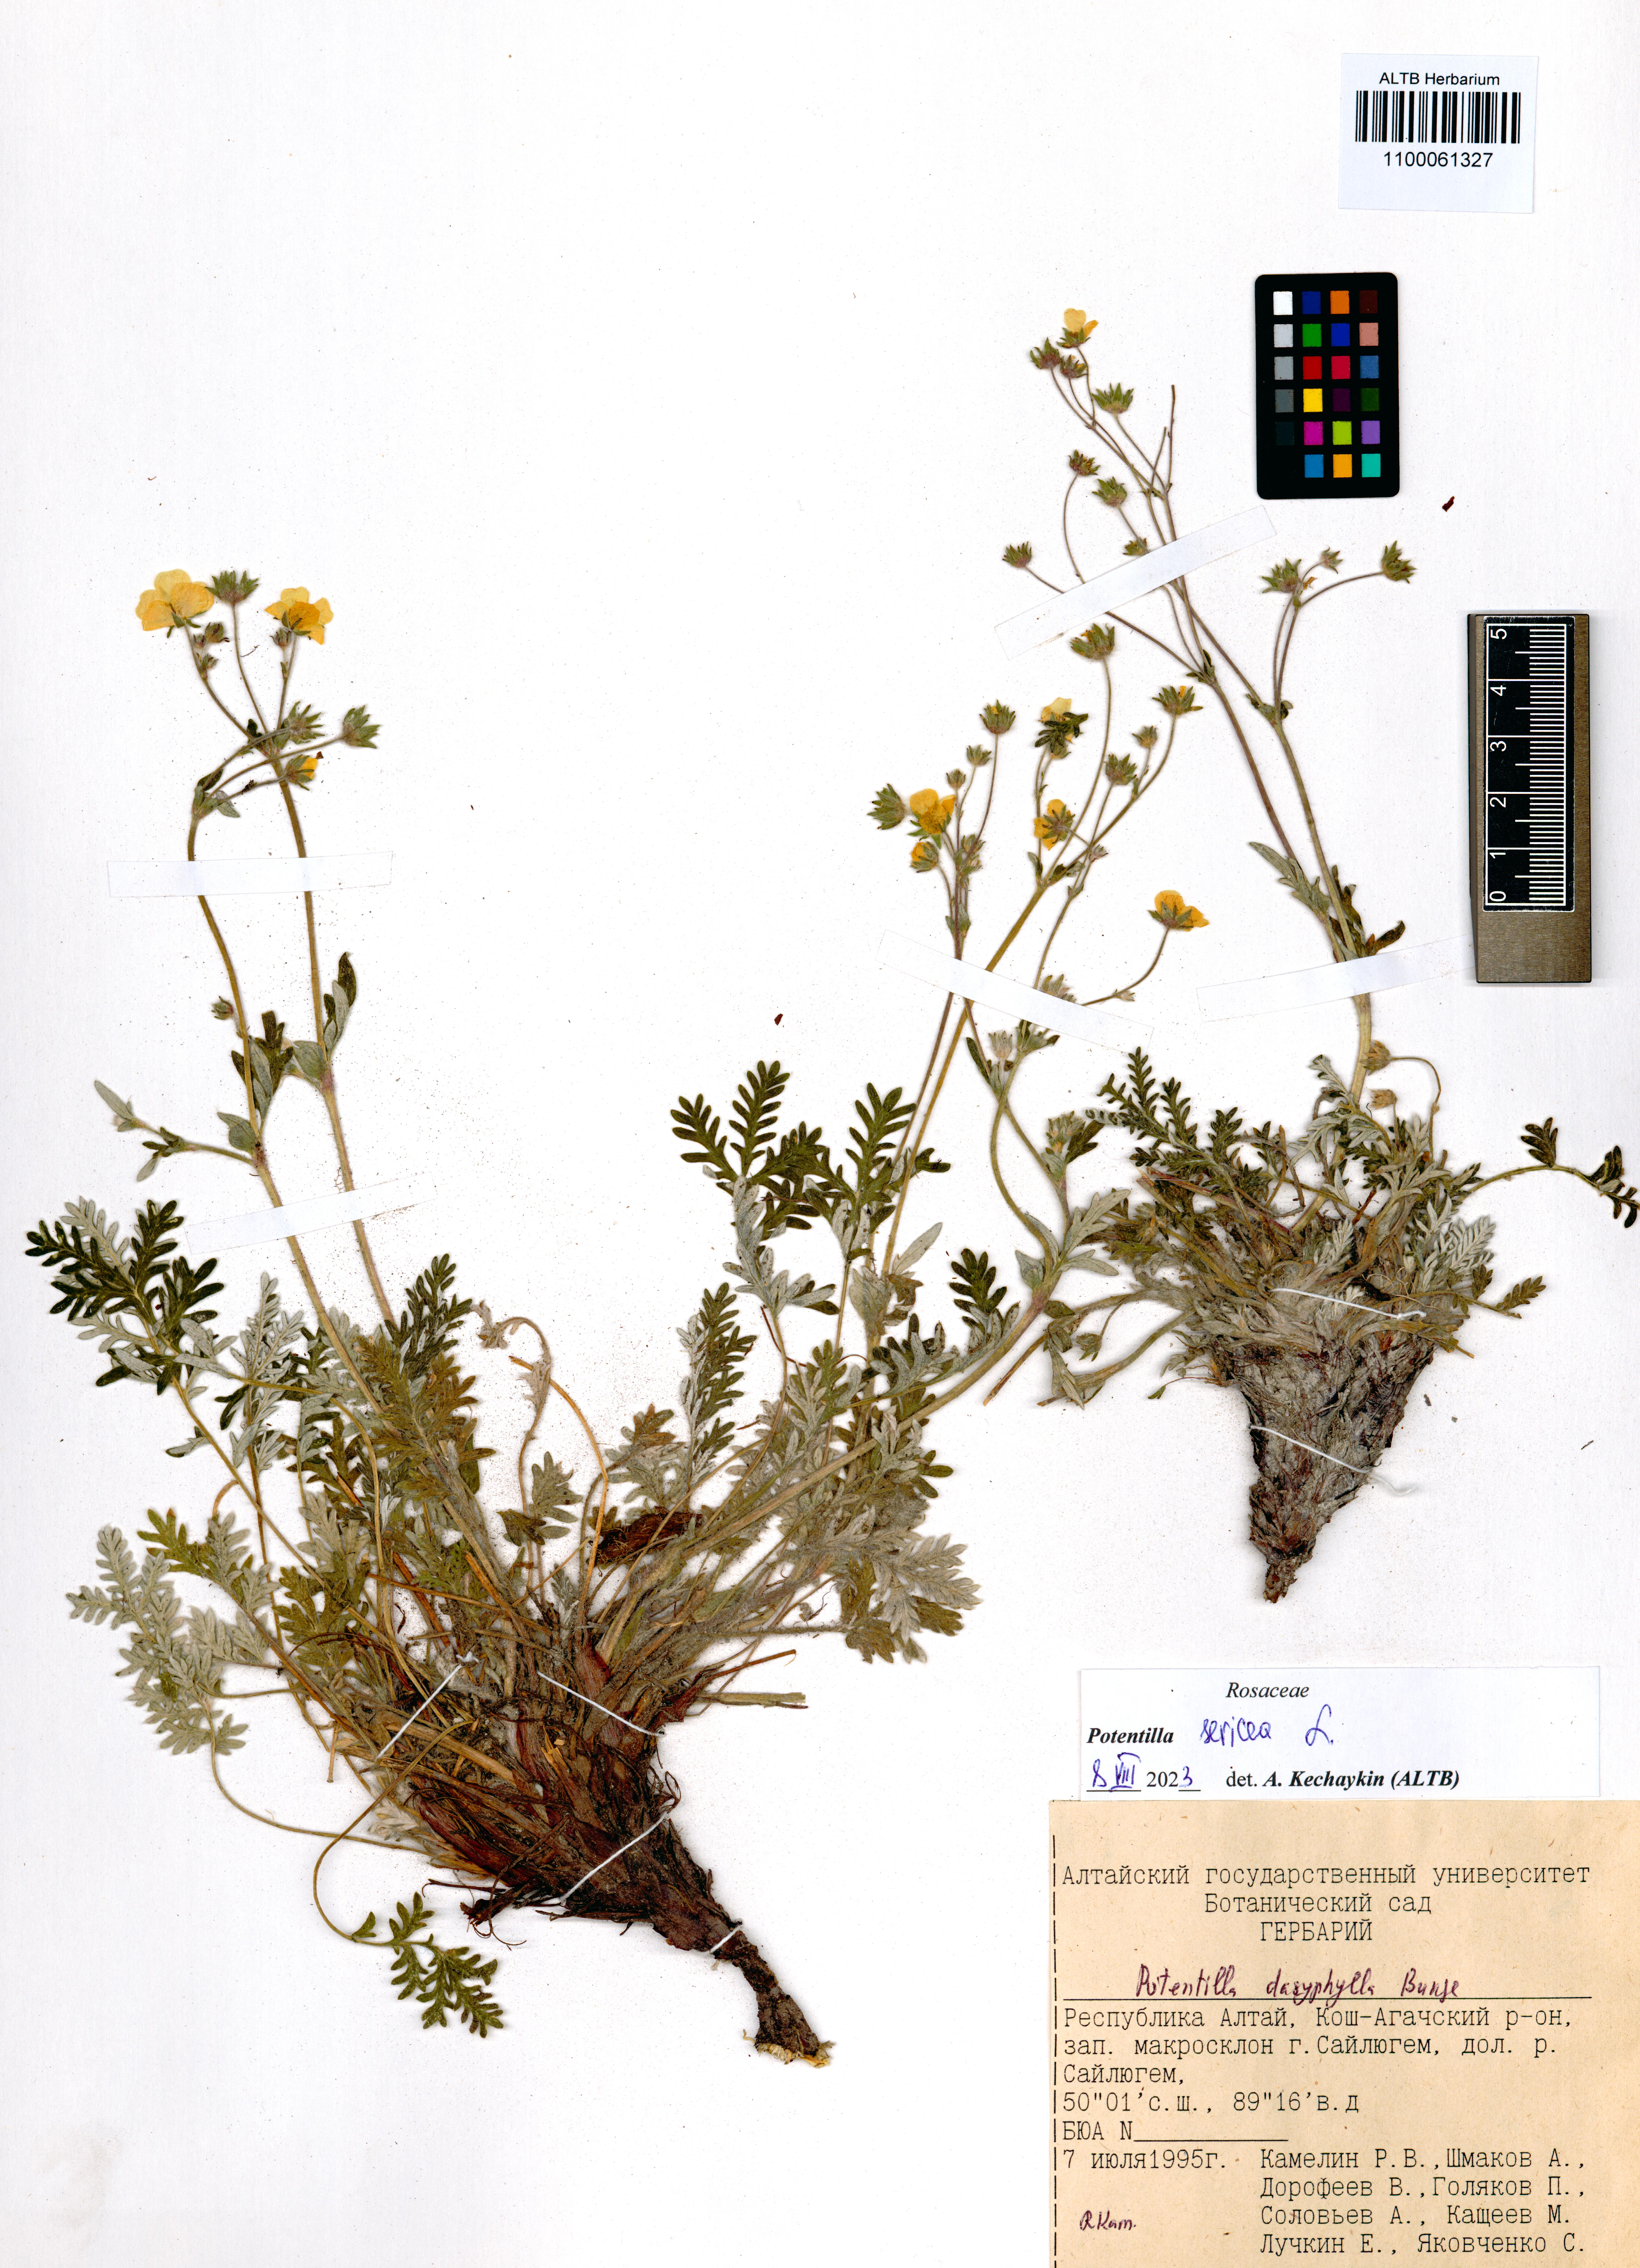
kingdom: Plantae
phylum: Tracheophyta
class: Magnoliopsida
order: Rosales
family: Rosaceae
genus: Potentilla
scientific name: Potentilla sericea
